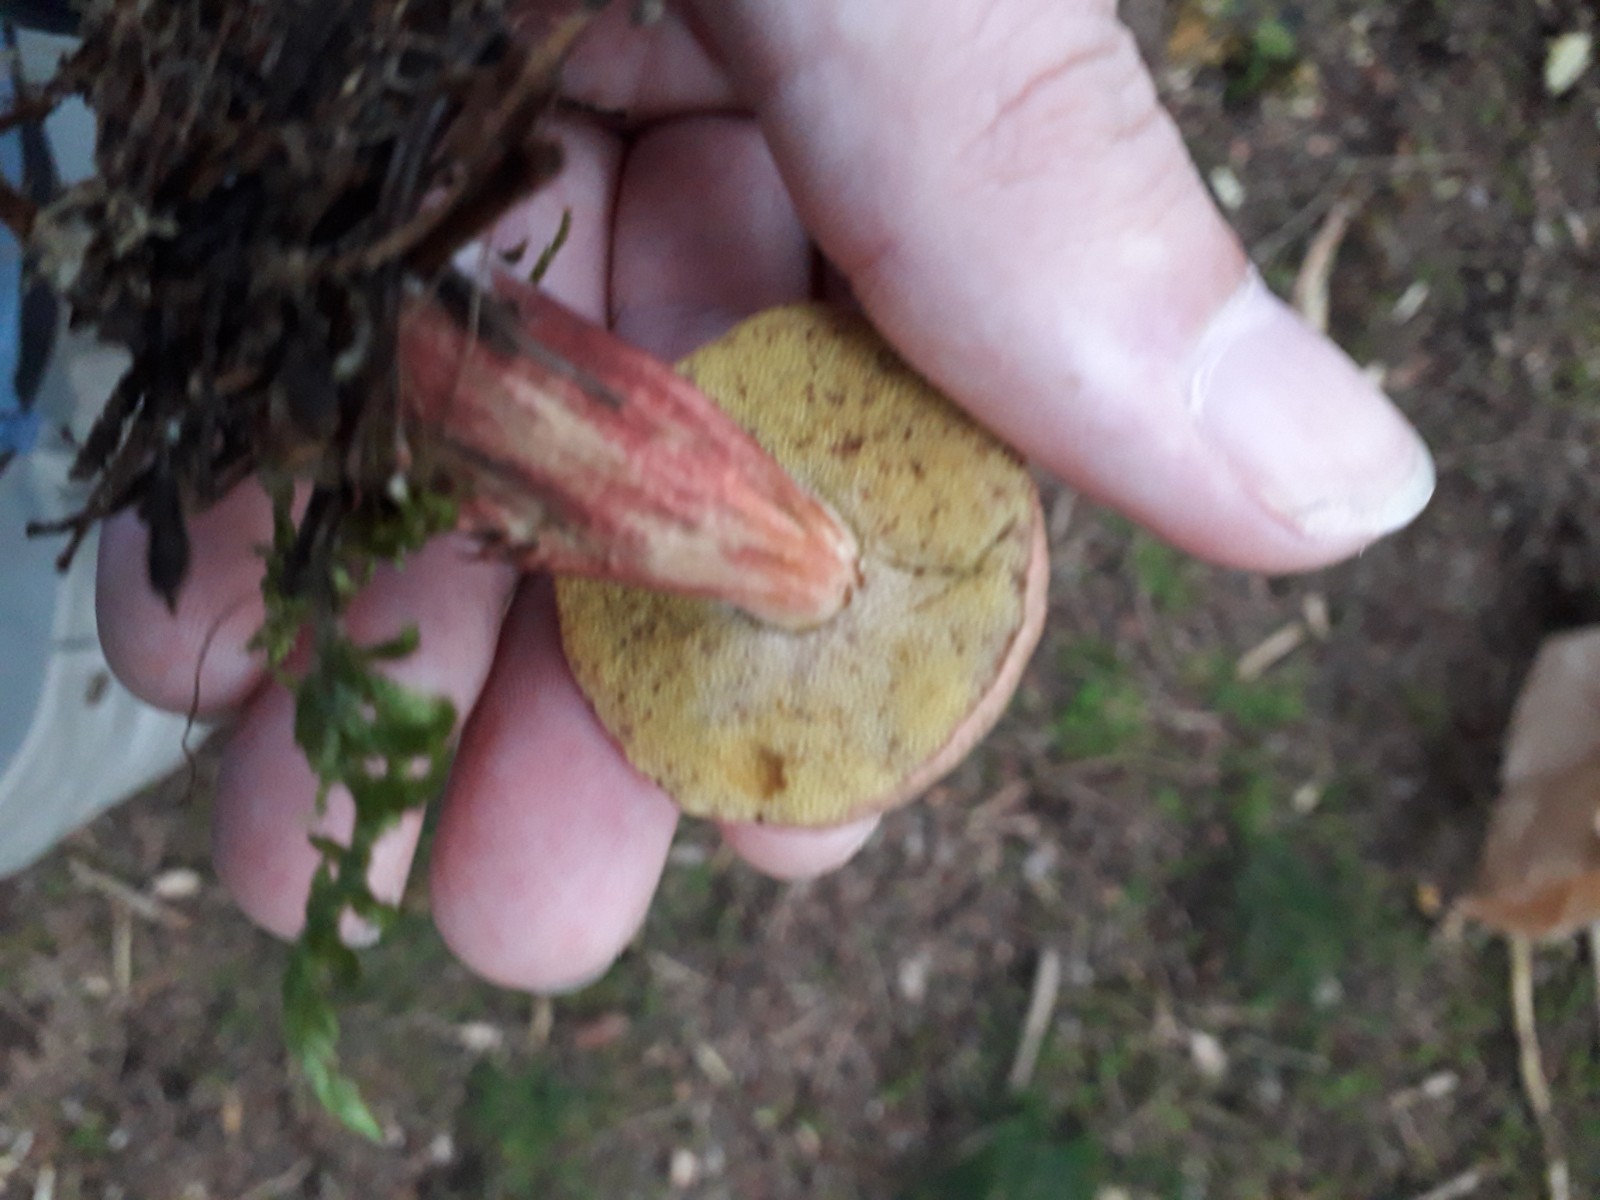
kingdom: Fungi
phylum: Basidiomycota
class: Agaricomycetes
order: Boletales
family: Boletaceae
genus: Xerocomellus
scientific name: Xerocomellus chrysenteron
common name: rødsprukken rørhat
